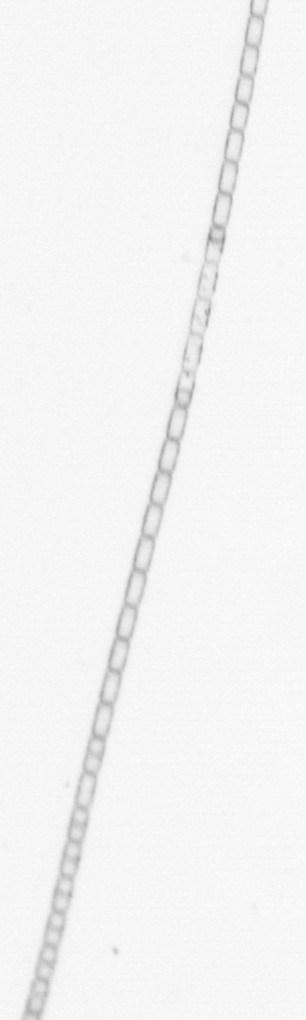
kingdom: Chromista
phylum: Ochrophyta
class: Bacillariophyceae
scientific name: Bacillariophyceae
